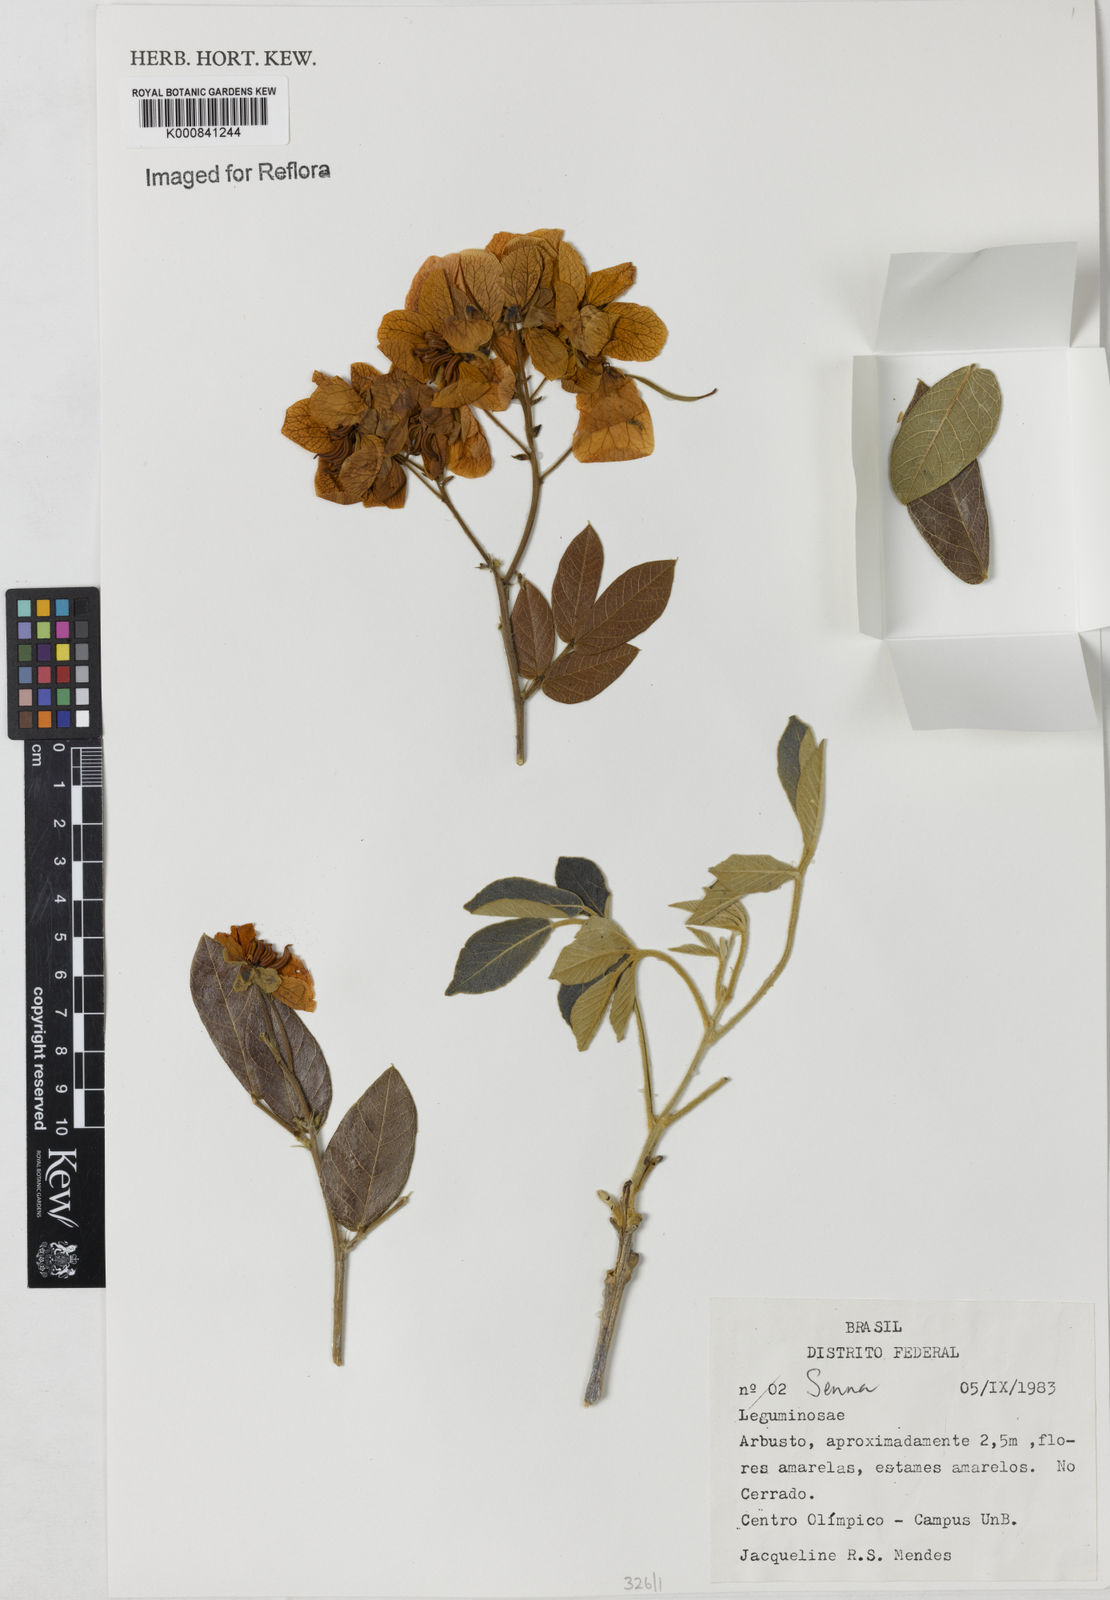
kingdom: Plantae
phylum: Tracheophyta
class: Magnoliopsida
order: Fabales
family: Fabaceae
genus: Senna
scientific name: Senna rugosa
